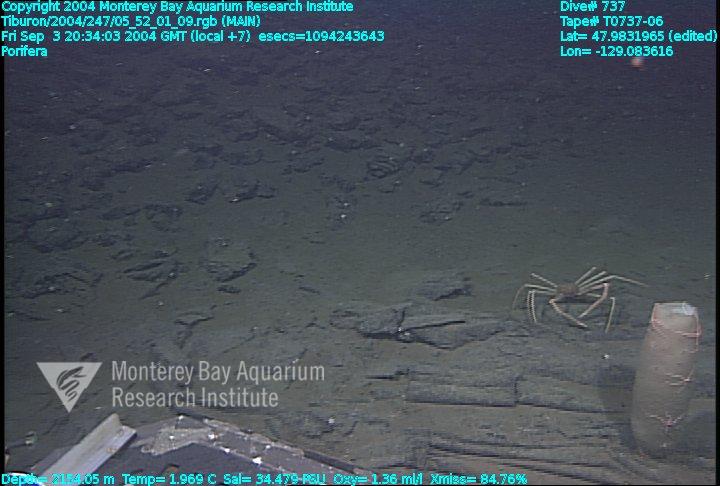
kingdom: Animalia
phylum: Porifera
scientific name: Porifera
